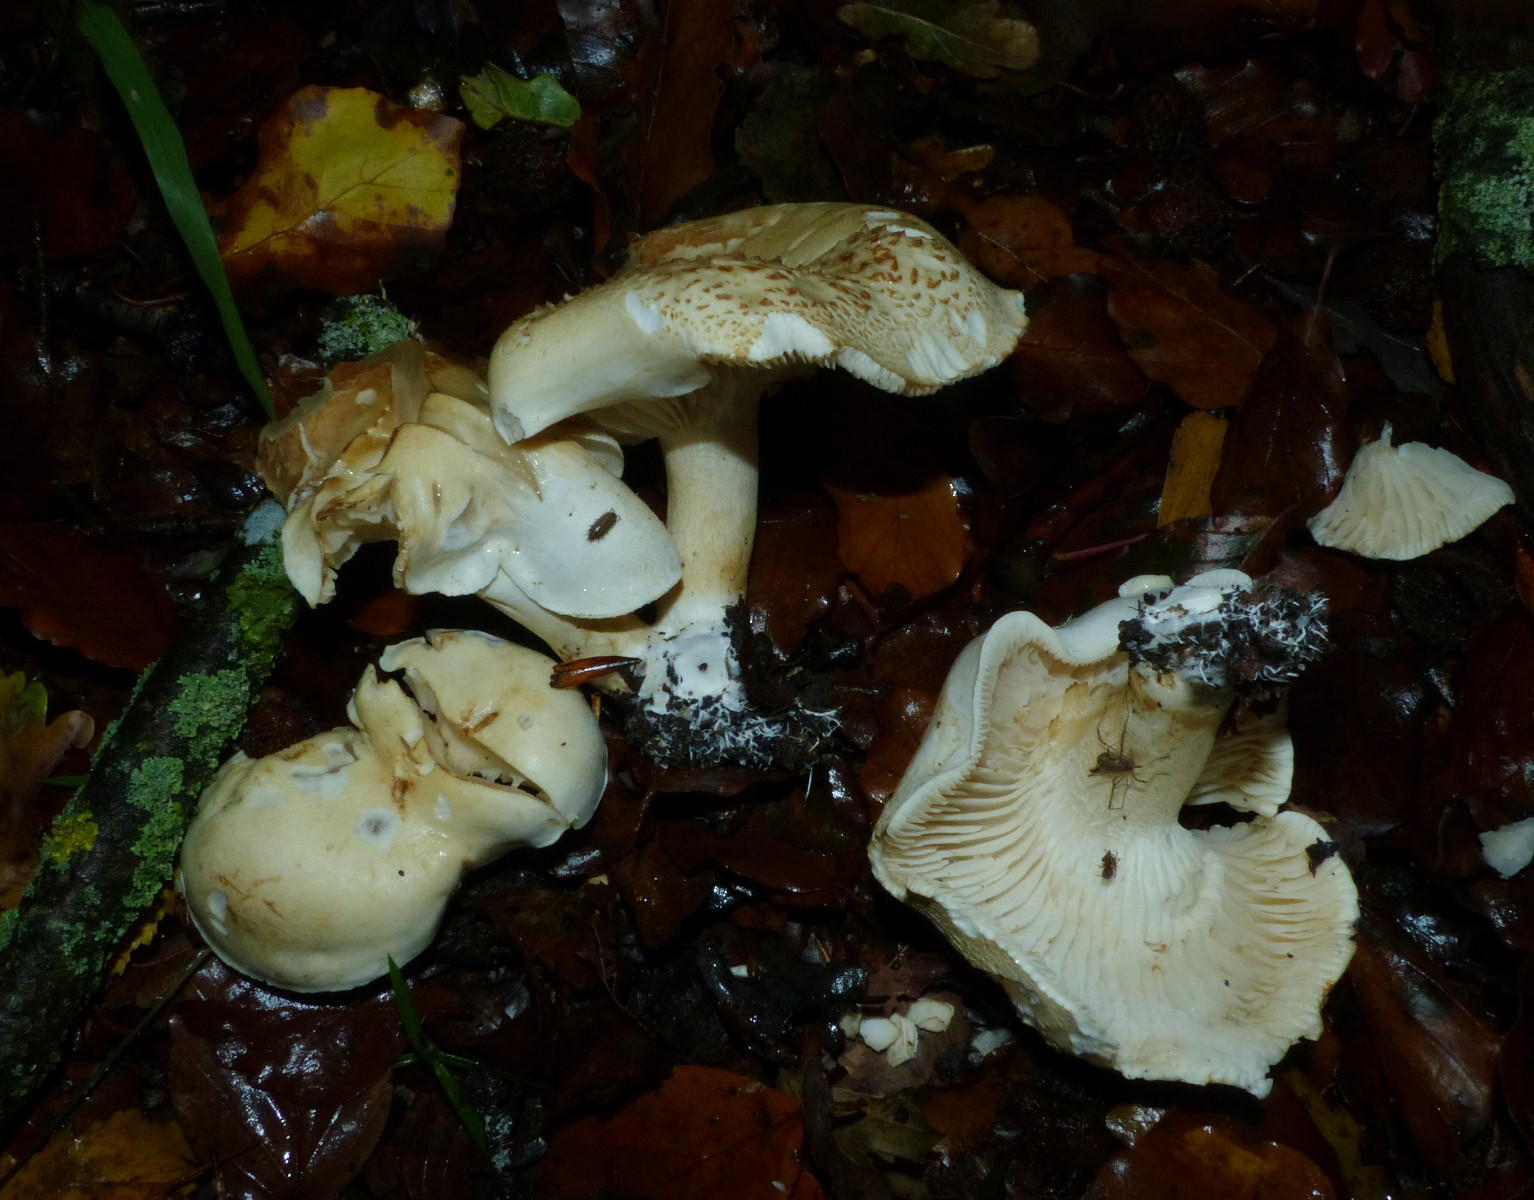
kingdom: Fungi
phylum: Basidiomycota
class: Agaricomycetes
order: Agaricales
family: Tricholomataceae
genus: Tricholoma
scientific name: Tricholoma lascivum
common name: stinkende ridderhat
